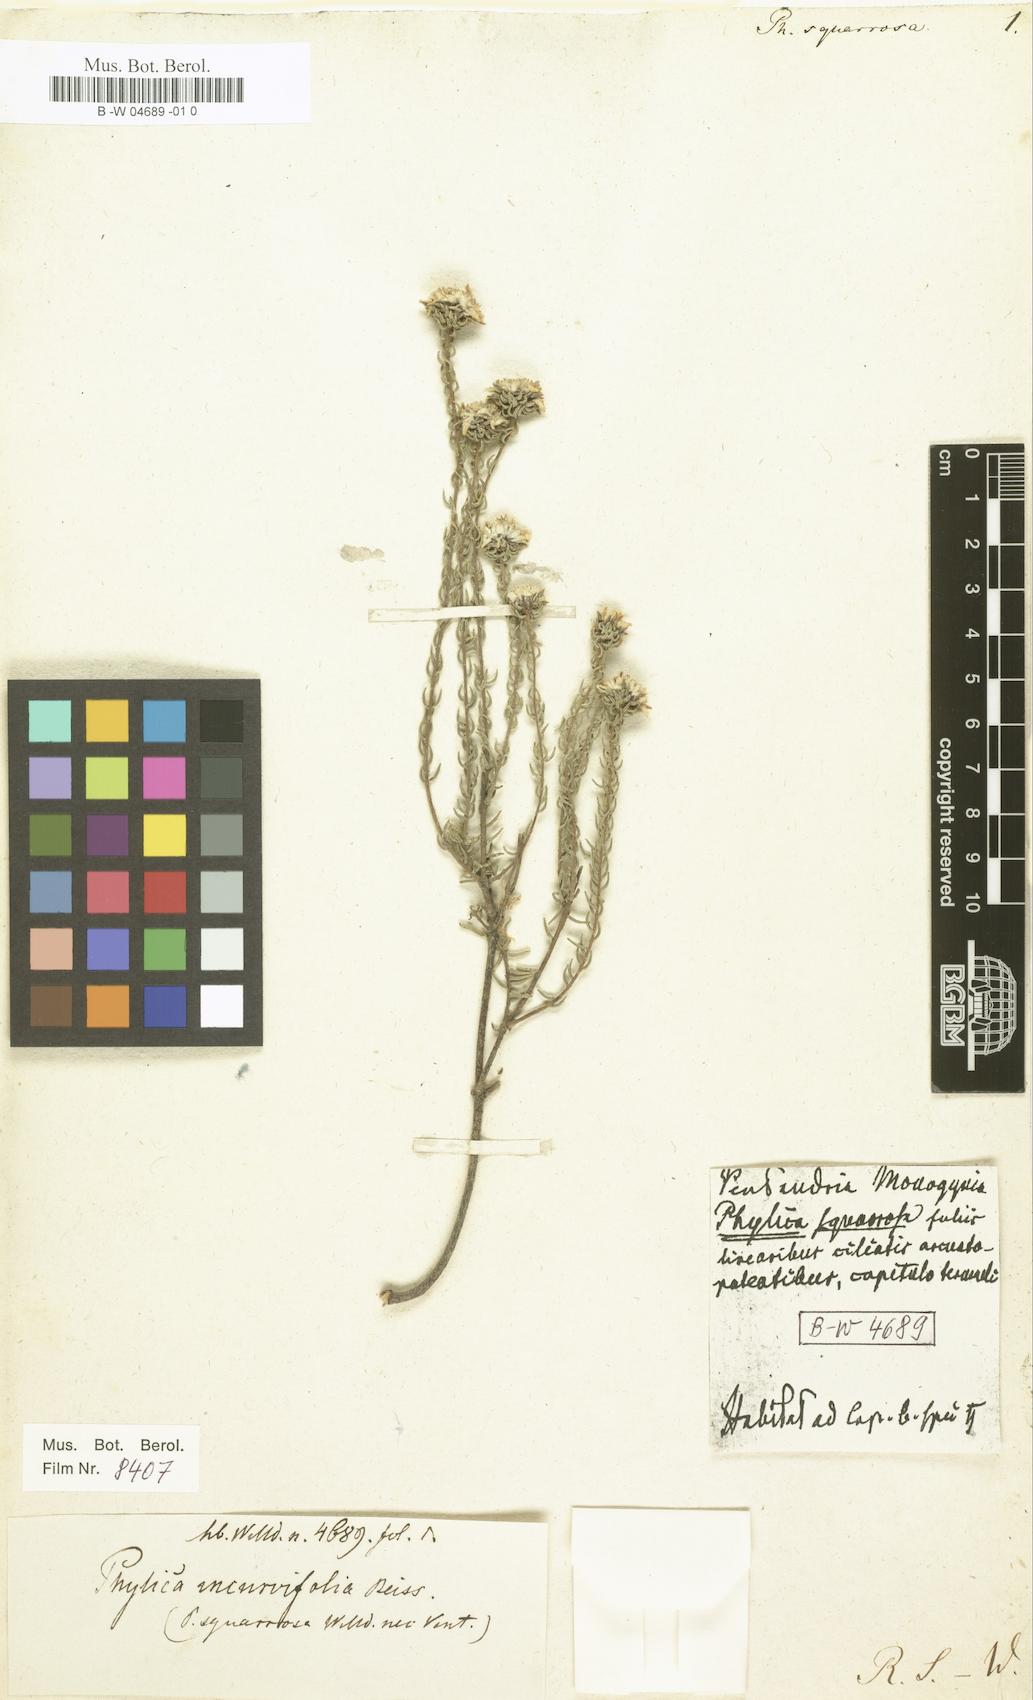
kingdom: Plantae
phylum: Tracheophyta
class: Magnoliopsida
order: Rosales
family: Rhamnaceae
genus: Phylica
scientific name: Phylica
